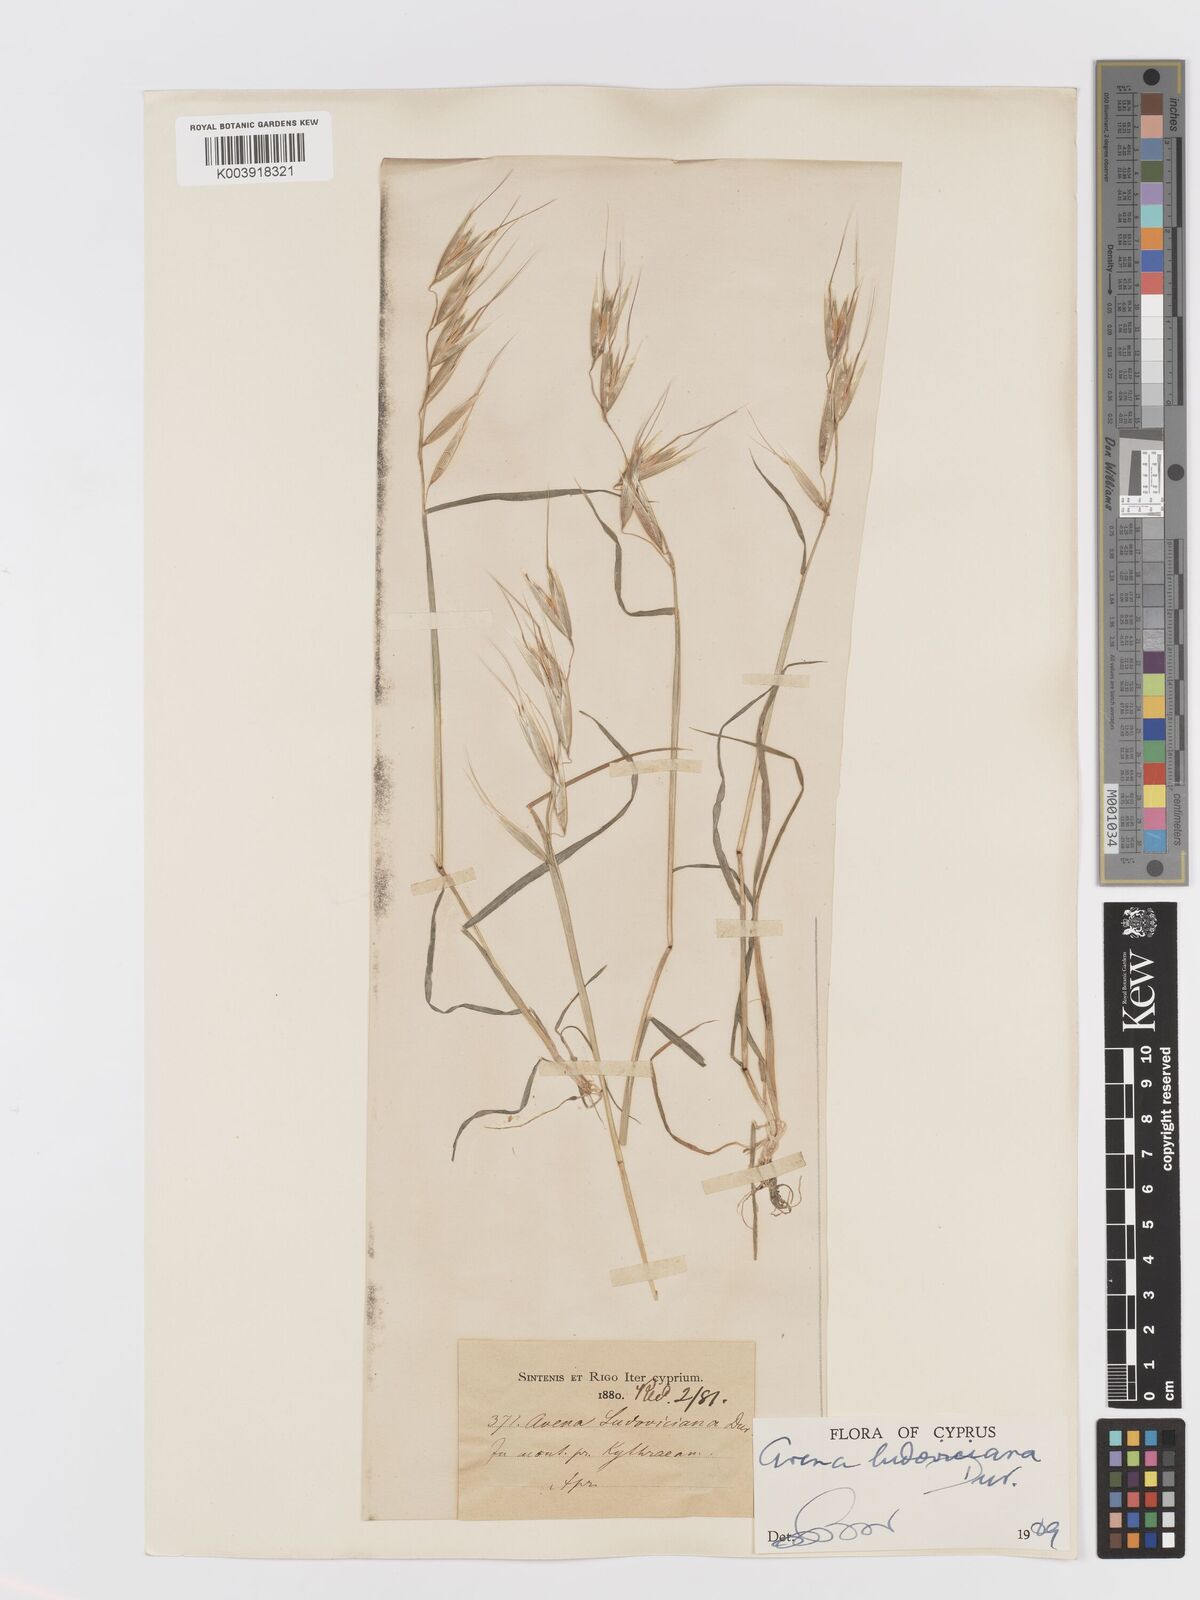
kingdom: Plantae
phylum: Tracheophyta
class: Liliopsida
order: Poales
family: Poaceae
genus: Avena
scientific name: Avena sterilis
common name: Animated oat
